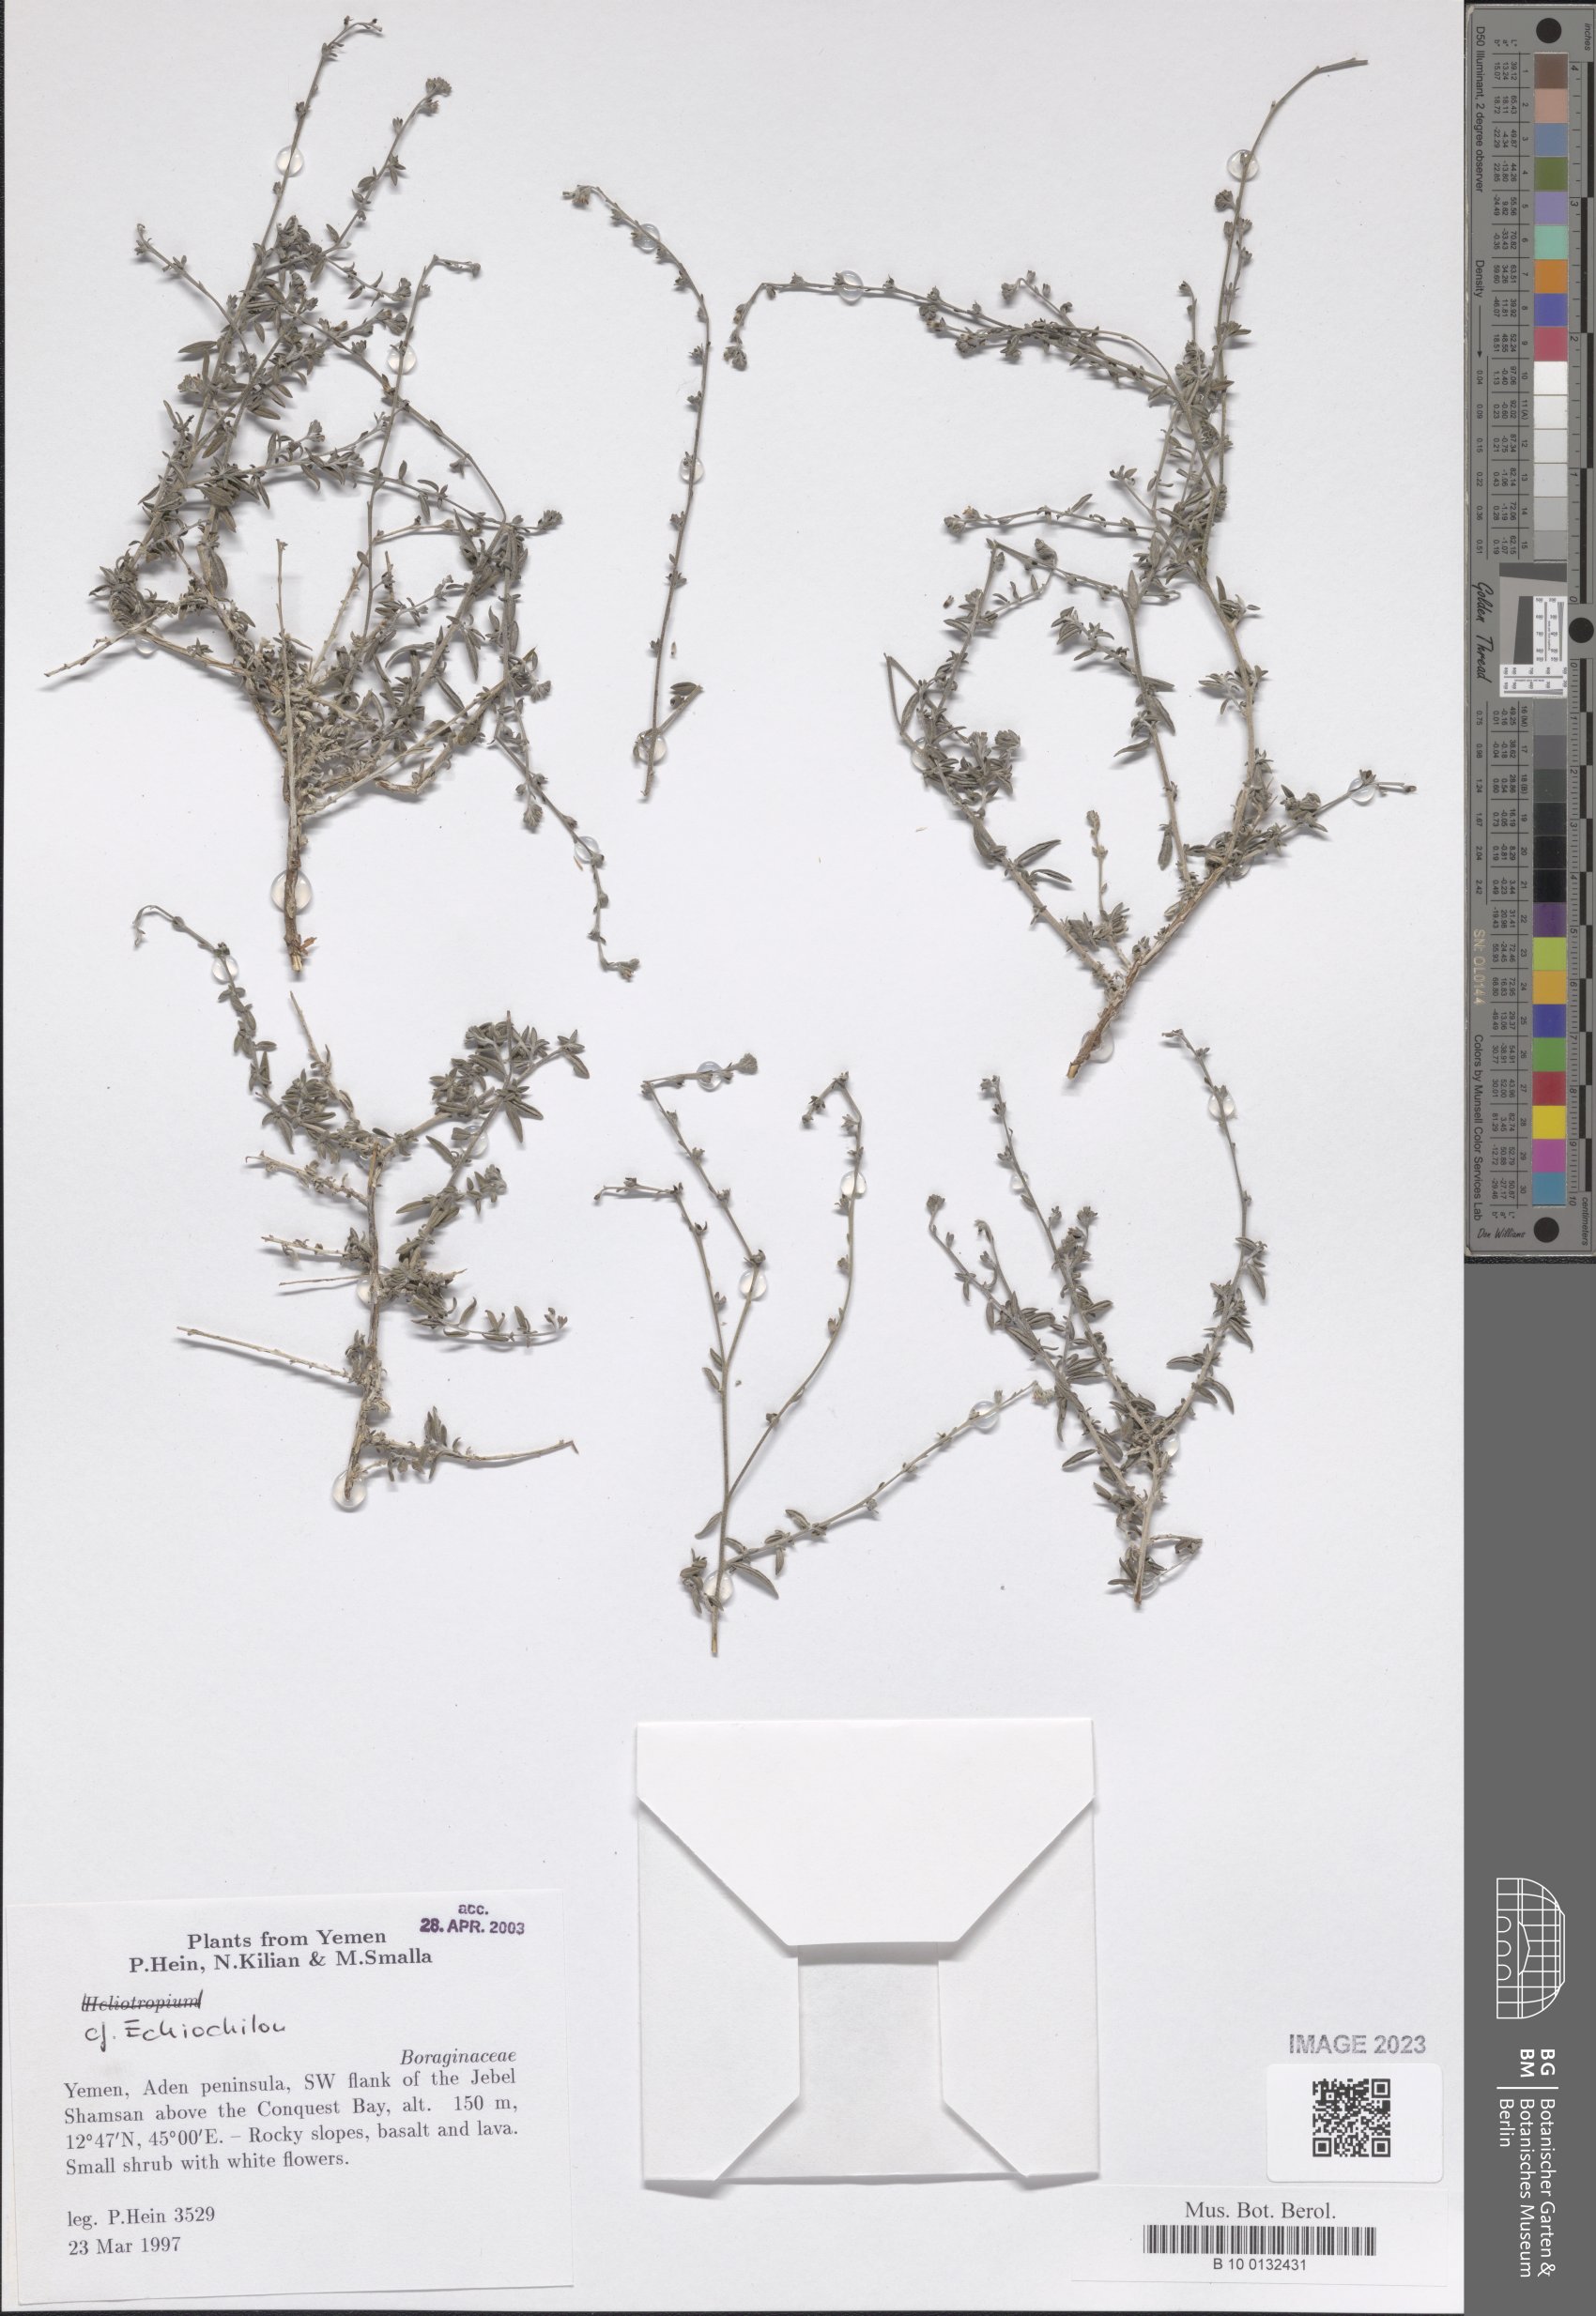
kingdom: Plantae
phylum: Tracheophyta
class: Magnoliopsida
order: Boraginales
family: Boraginaceae
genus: Echiochilon
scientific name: Echiochilon
